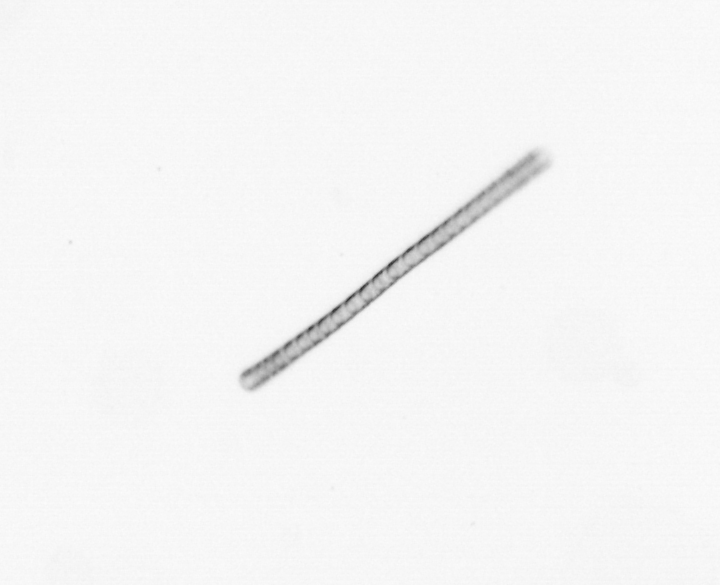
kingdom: Chromista
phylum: Ochrophyta
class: Bacillariophyceae
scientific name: Bacillariophyceae
